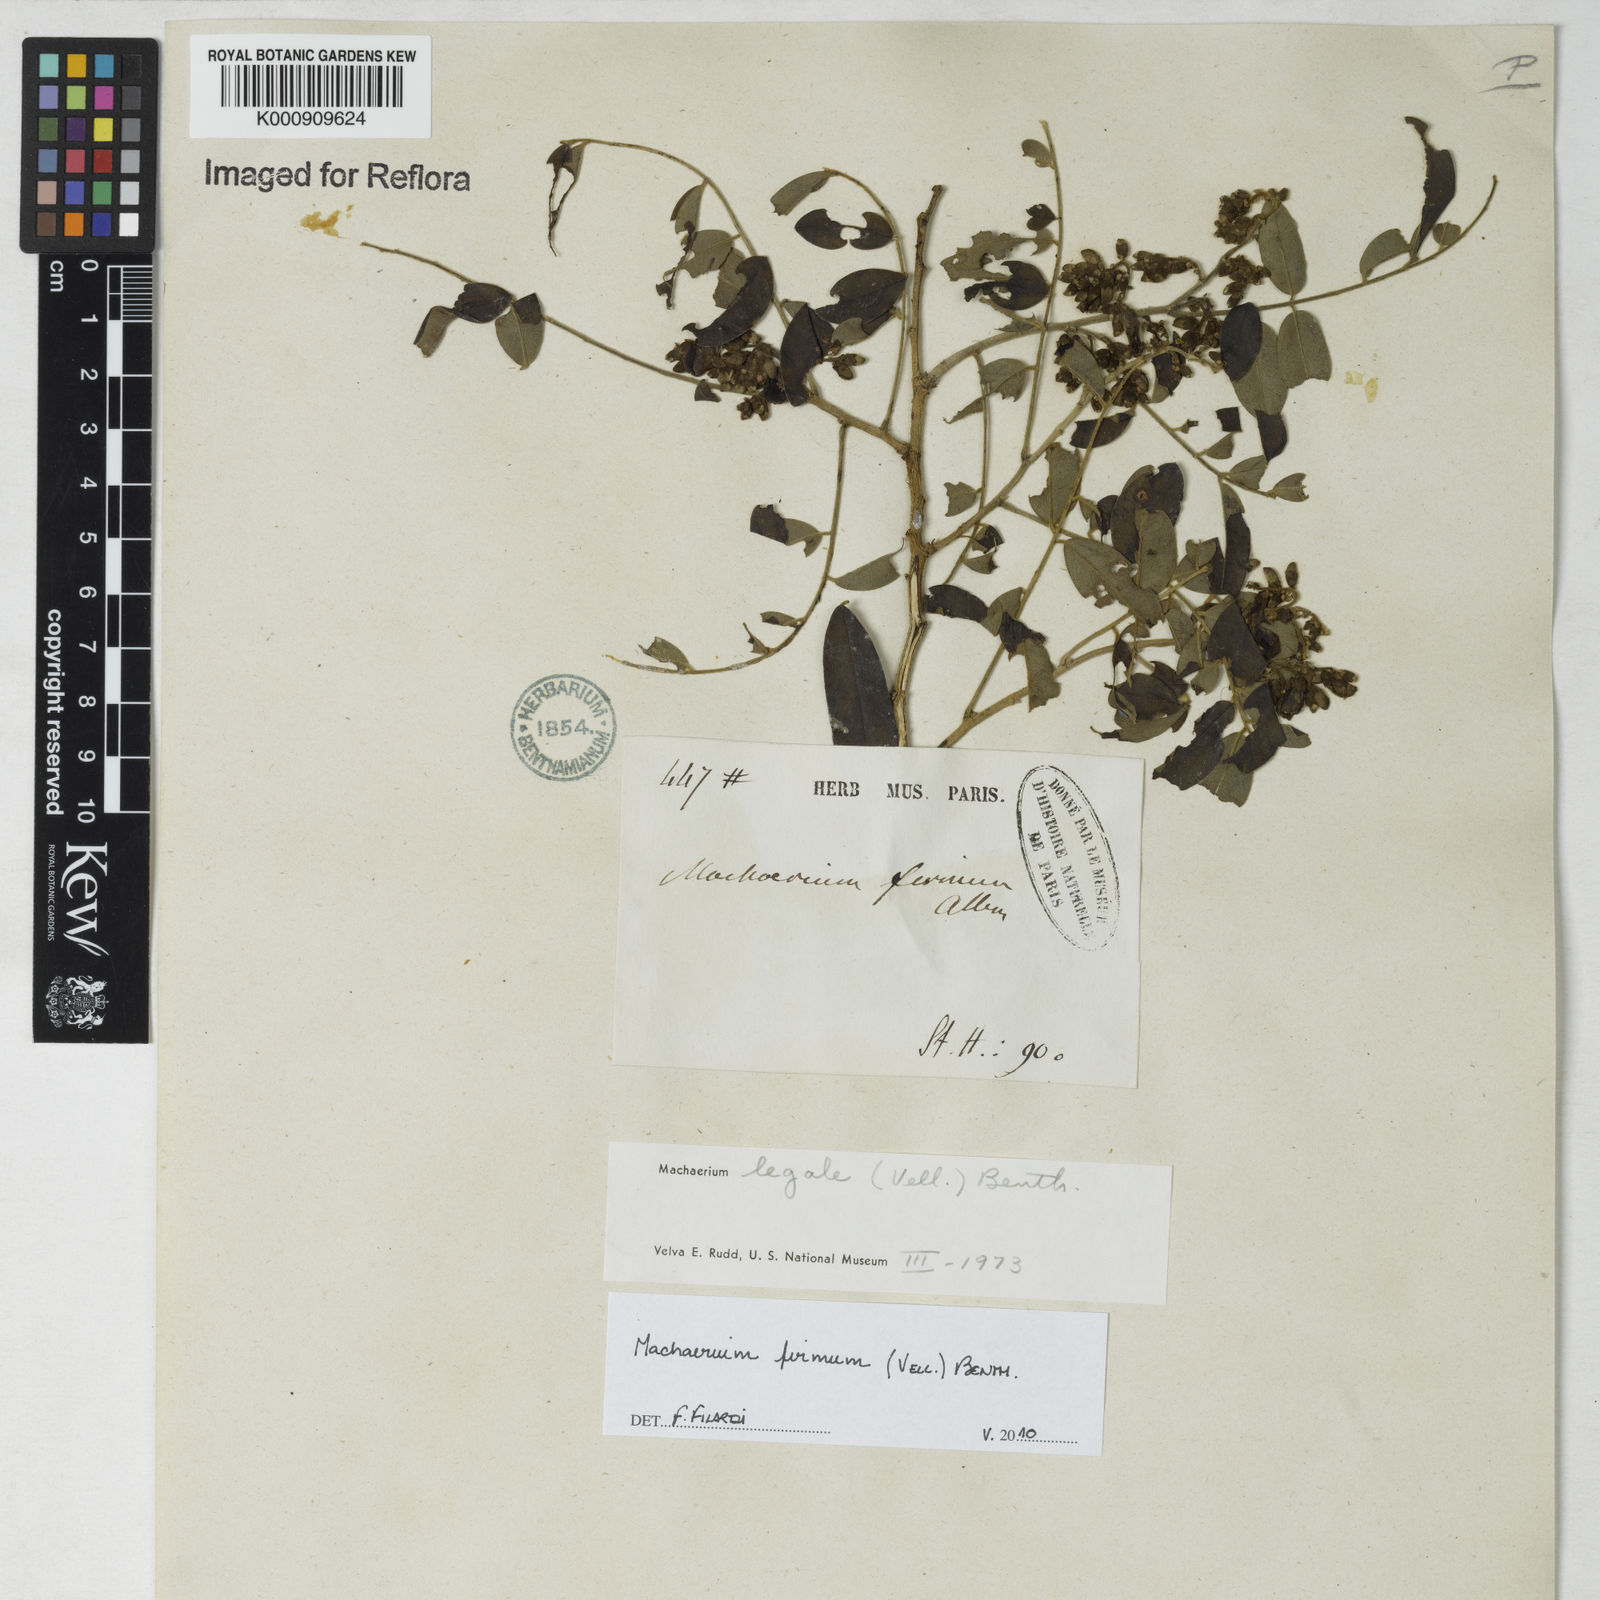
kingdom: Plantae
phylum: Tracheophyta
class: Magnoliopsida
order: Fabales
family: Fabaceae
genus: Machaerium
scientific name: Machaerium firmum
